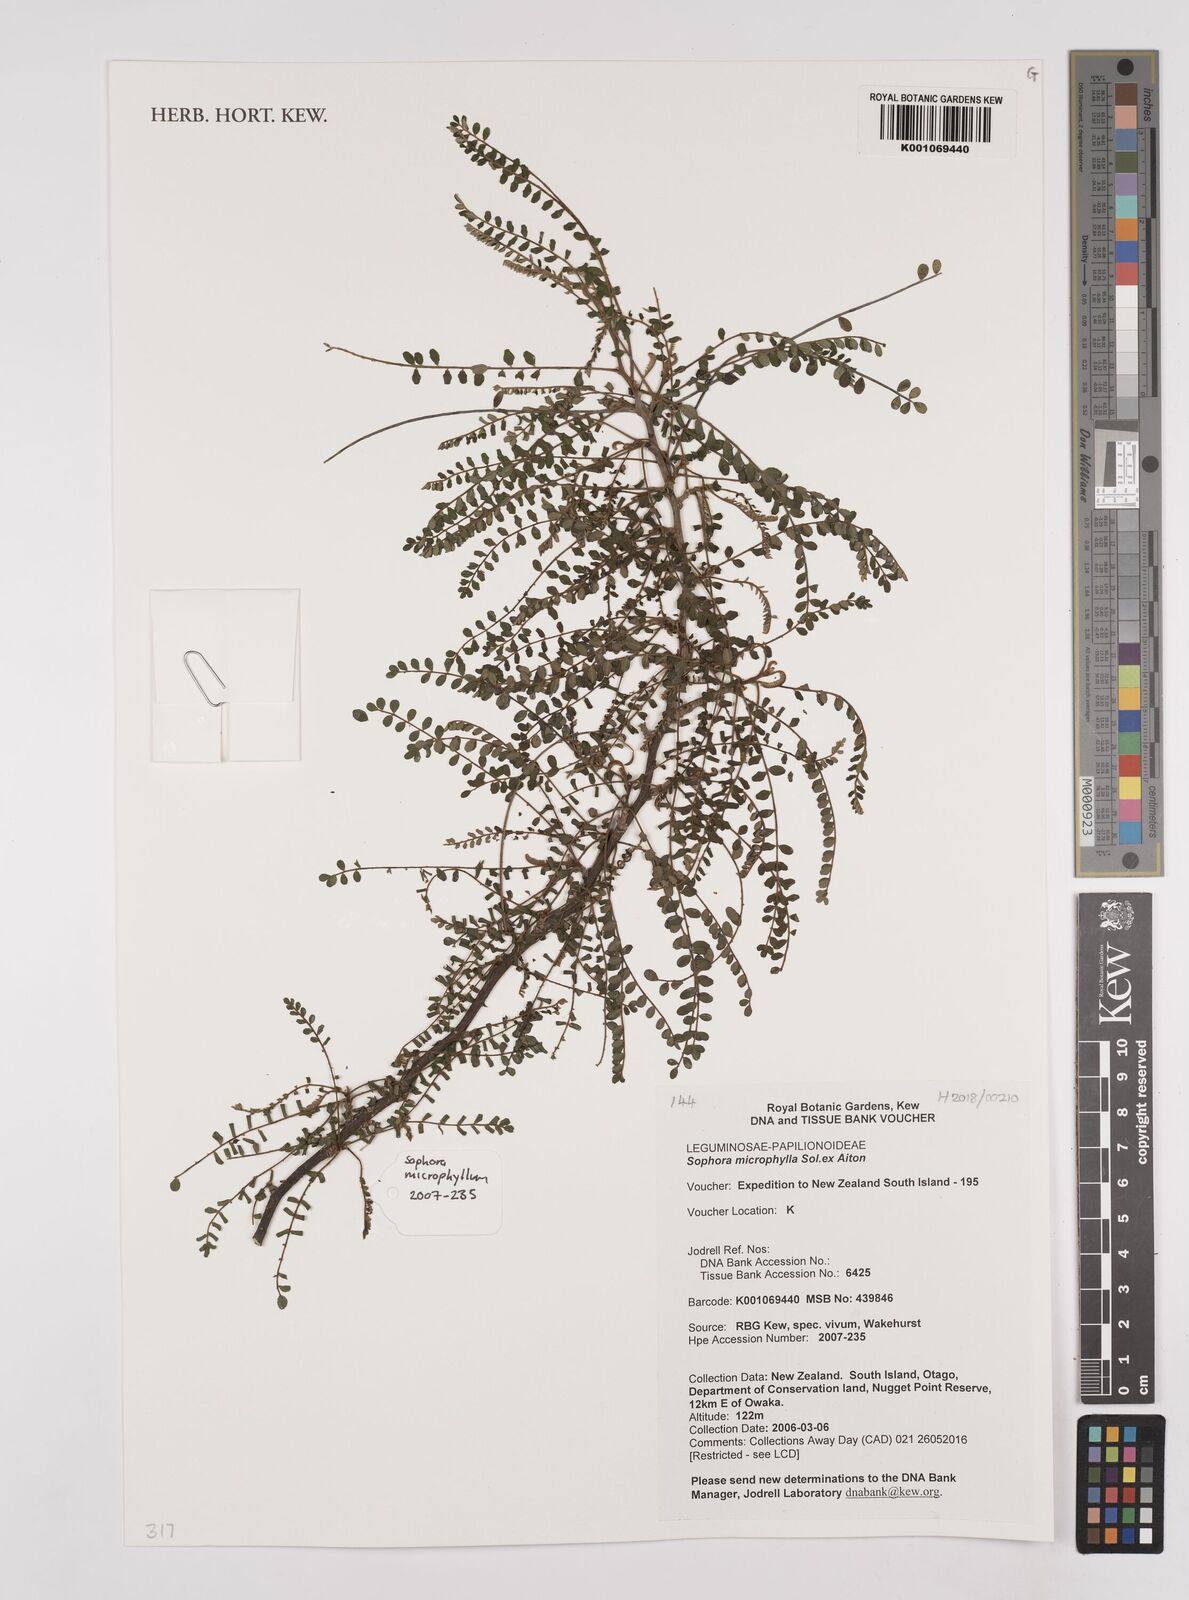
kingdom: Plantae
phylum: Tracheophyta
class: Magnoliopsida
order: Fabales
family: Fabaceae
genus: Sophora
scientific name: Sophora microphylla
